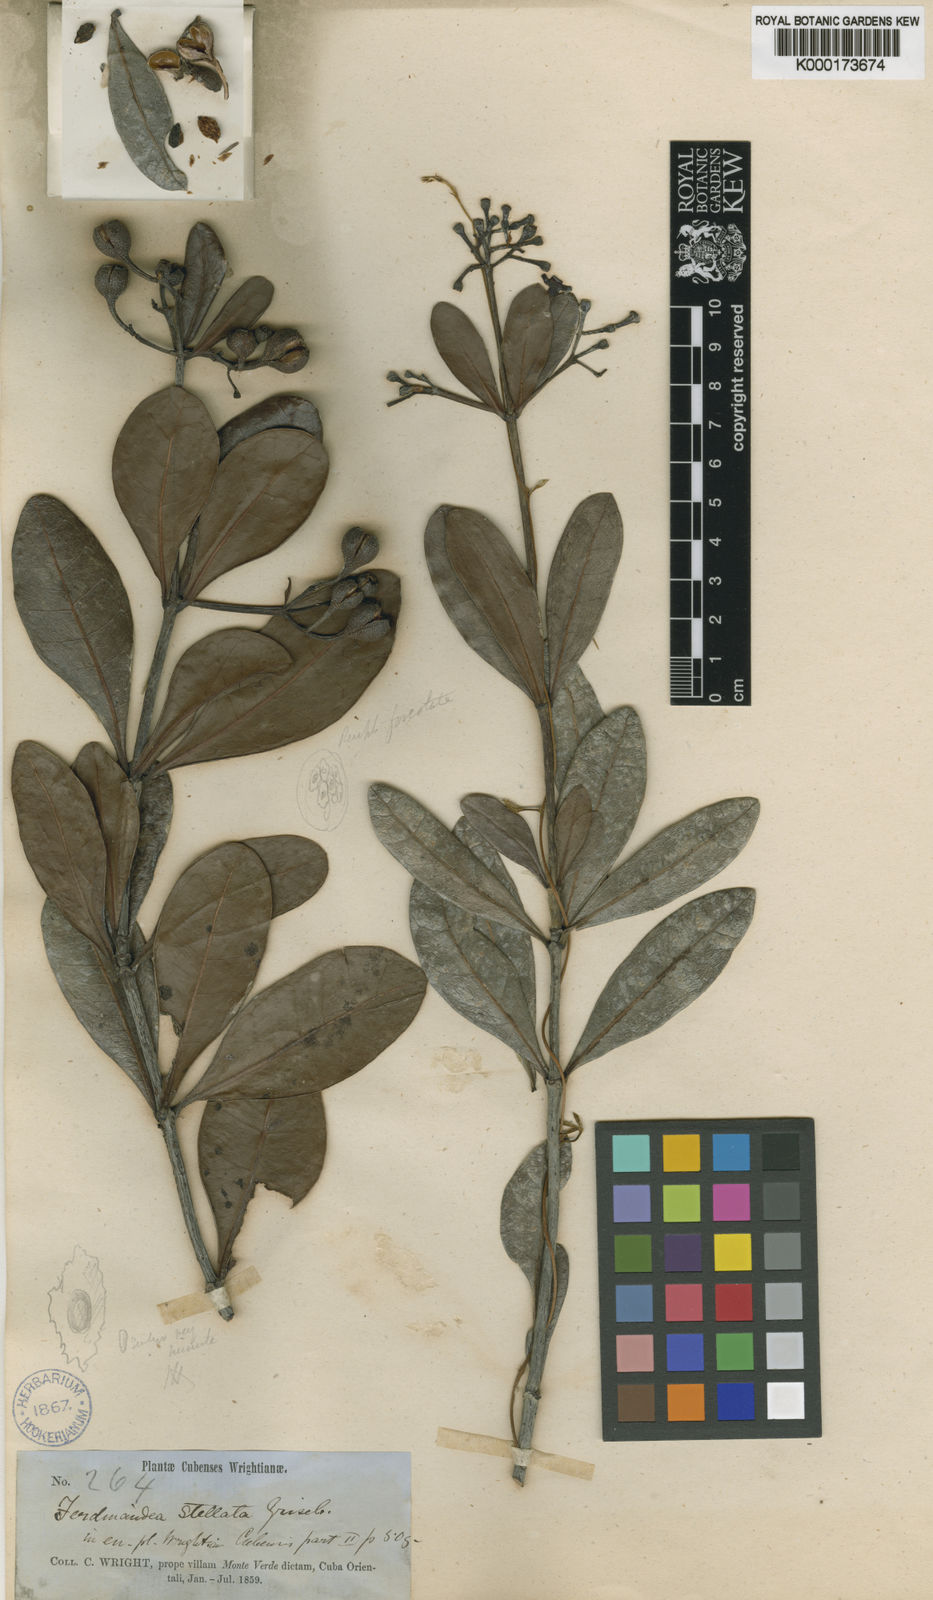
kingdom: Plantae
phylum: Tracheophyta
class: Magnoliopsida
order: Gentianales
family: Rubiaceae
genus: Suberanthus
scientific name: Suberanthus
